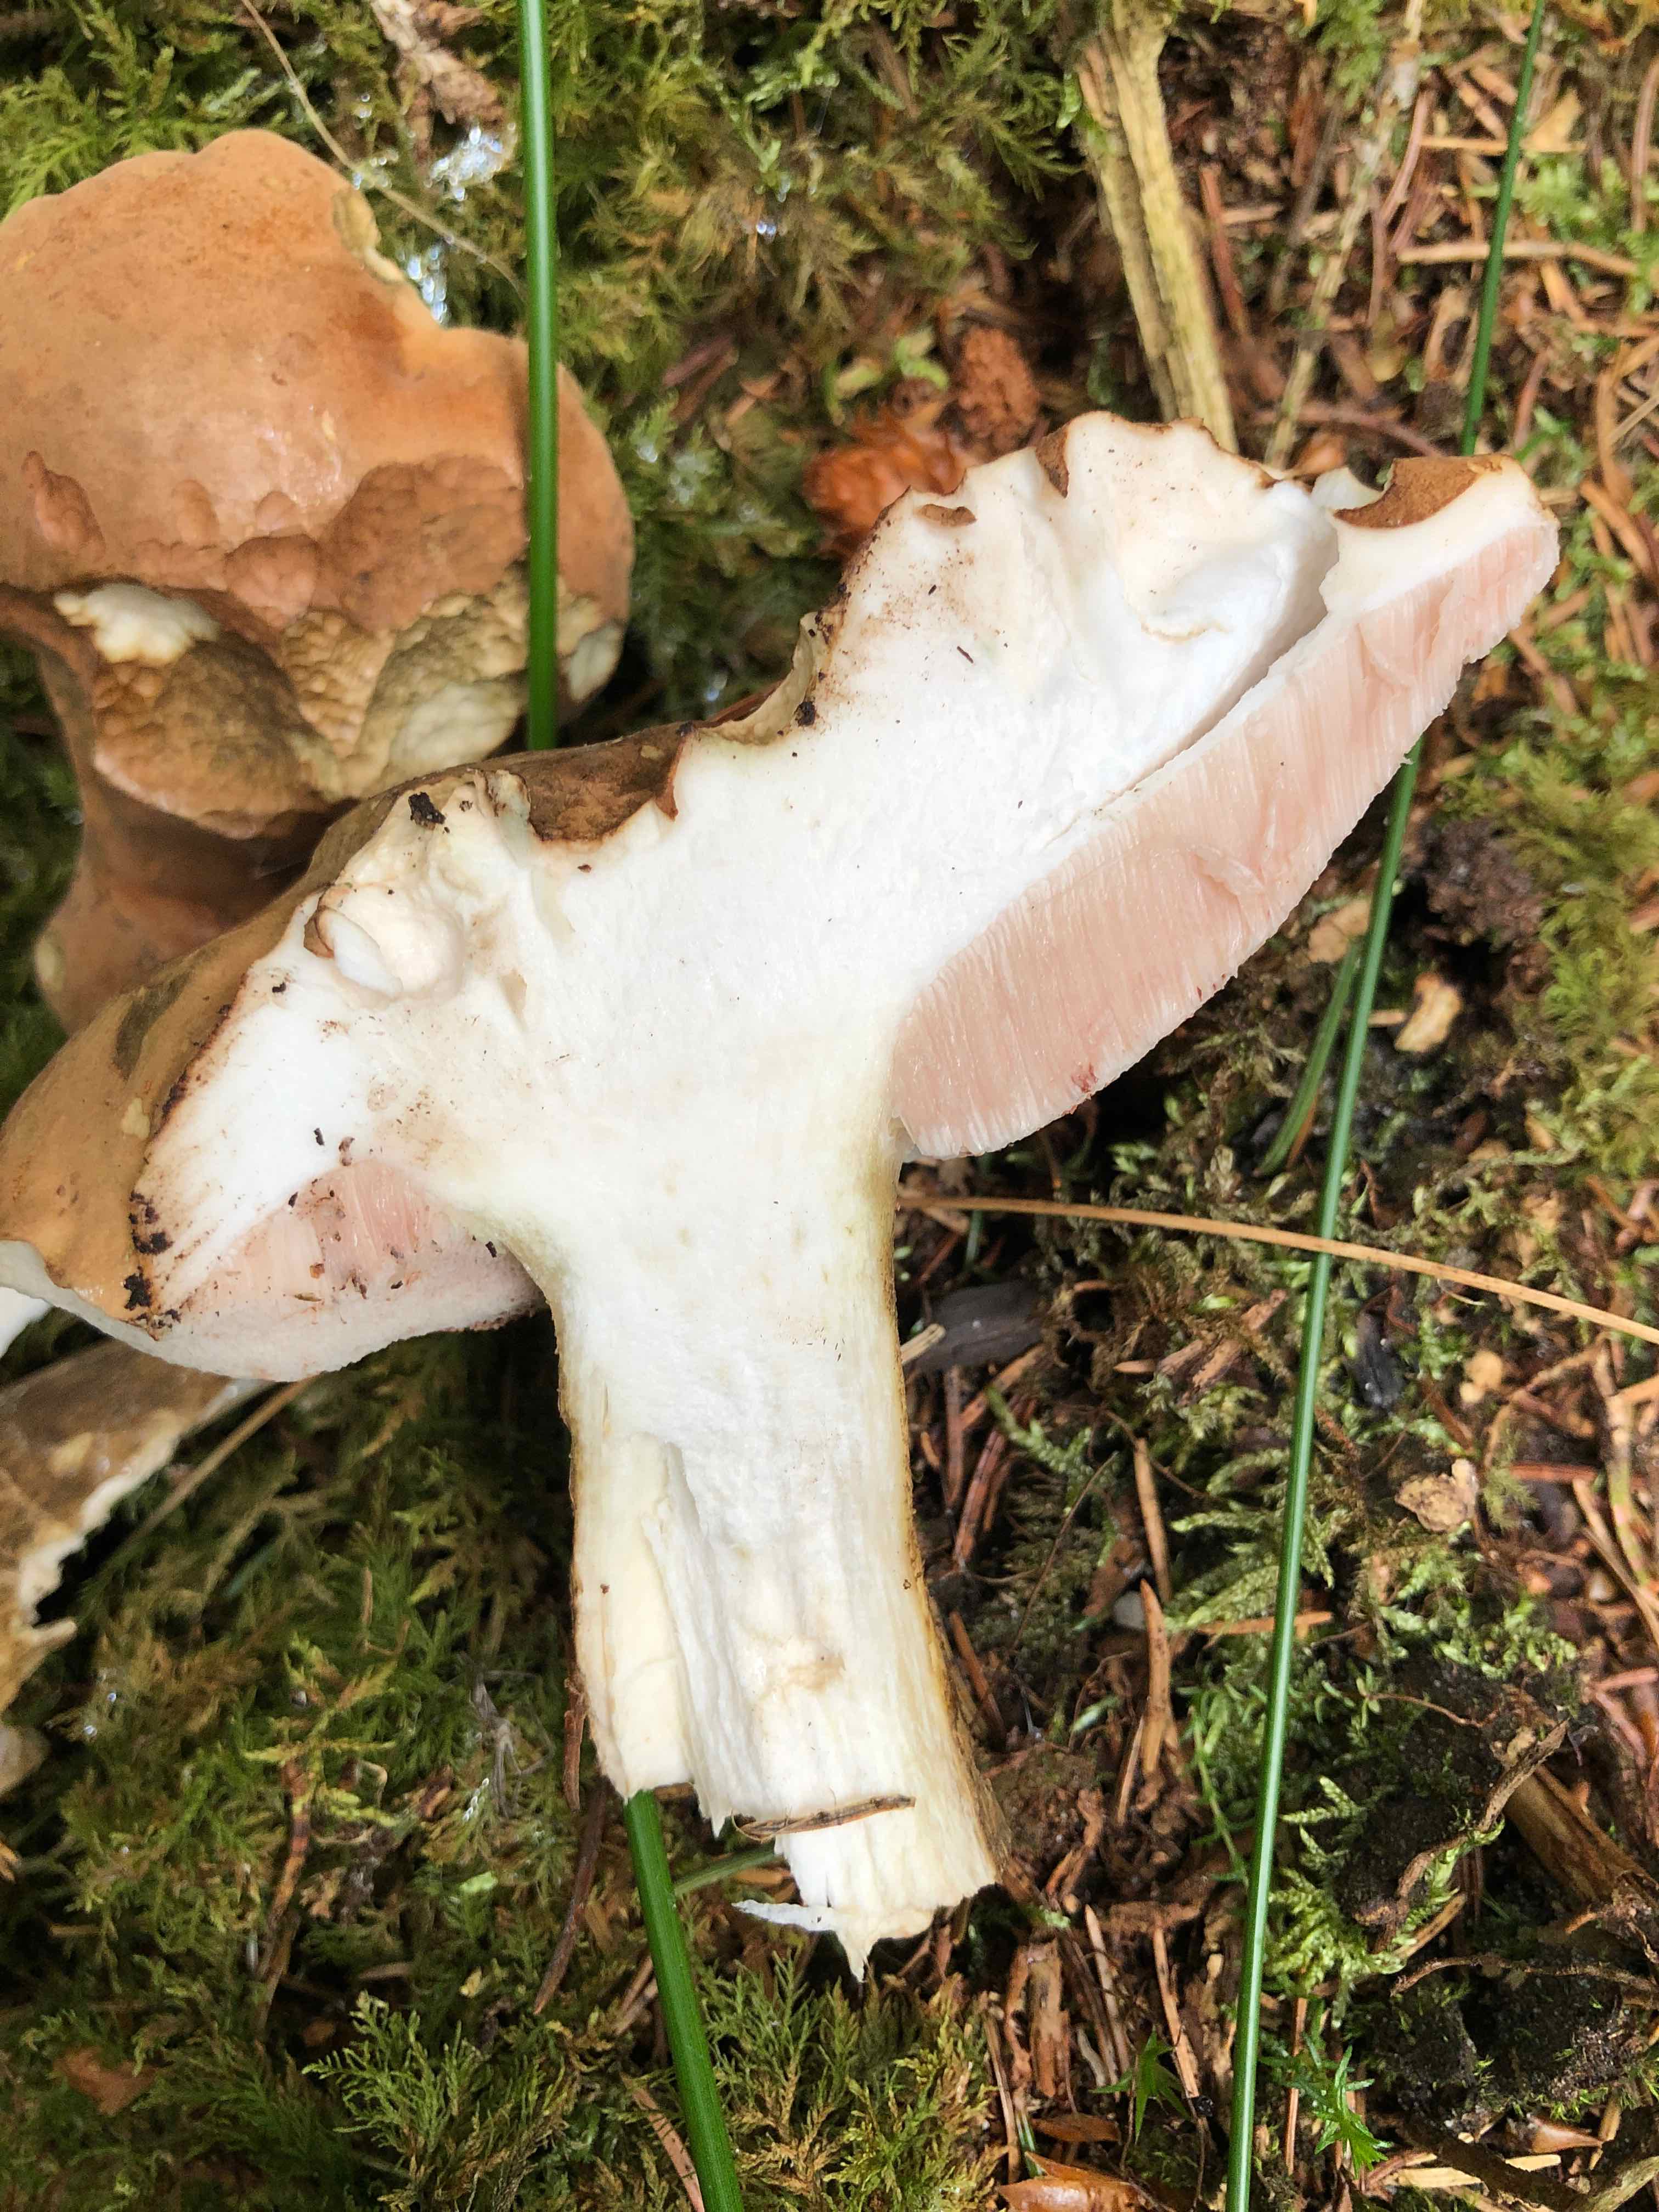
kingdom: Fungi
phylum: Basidiomycota
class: Agaricomycetes
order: Boletales
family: Boletaceae
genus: Tylopilus
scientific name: Tylopilus felleus
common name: galderørhat
